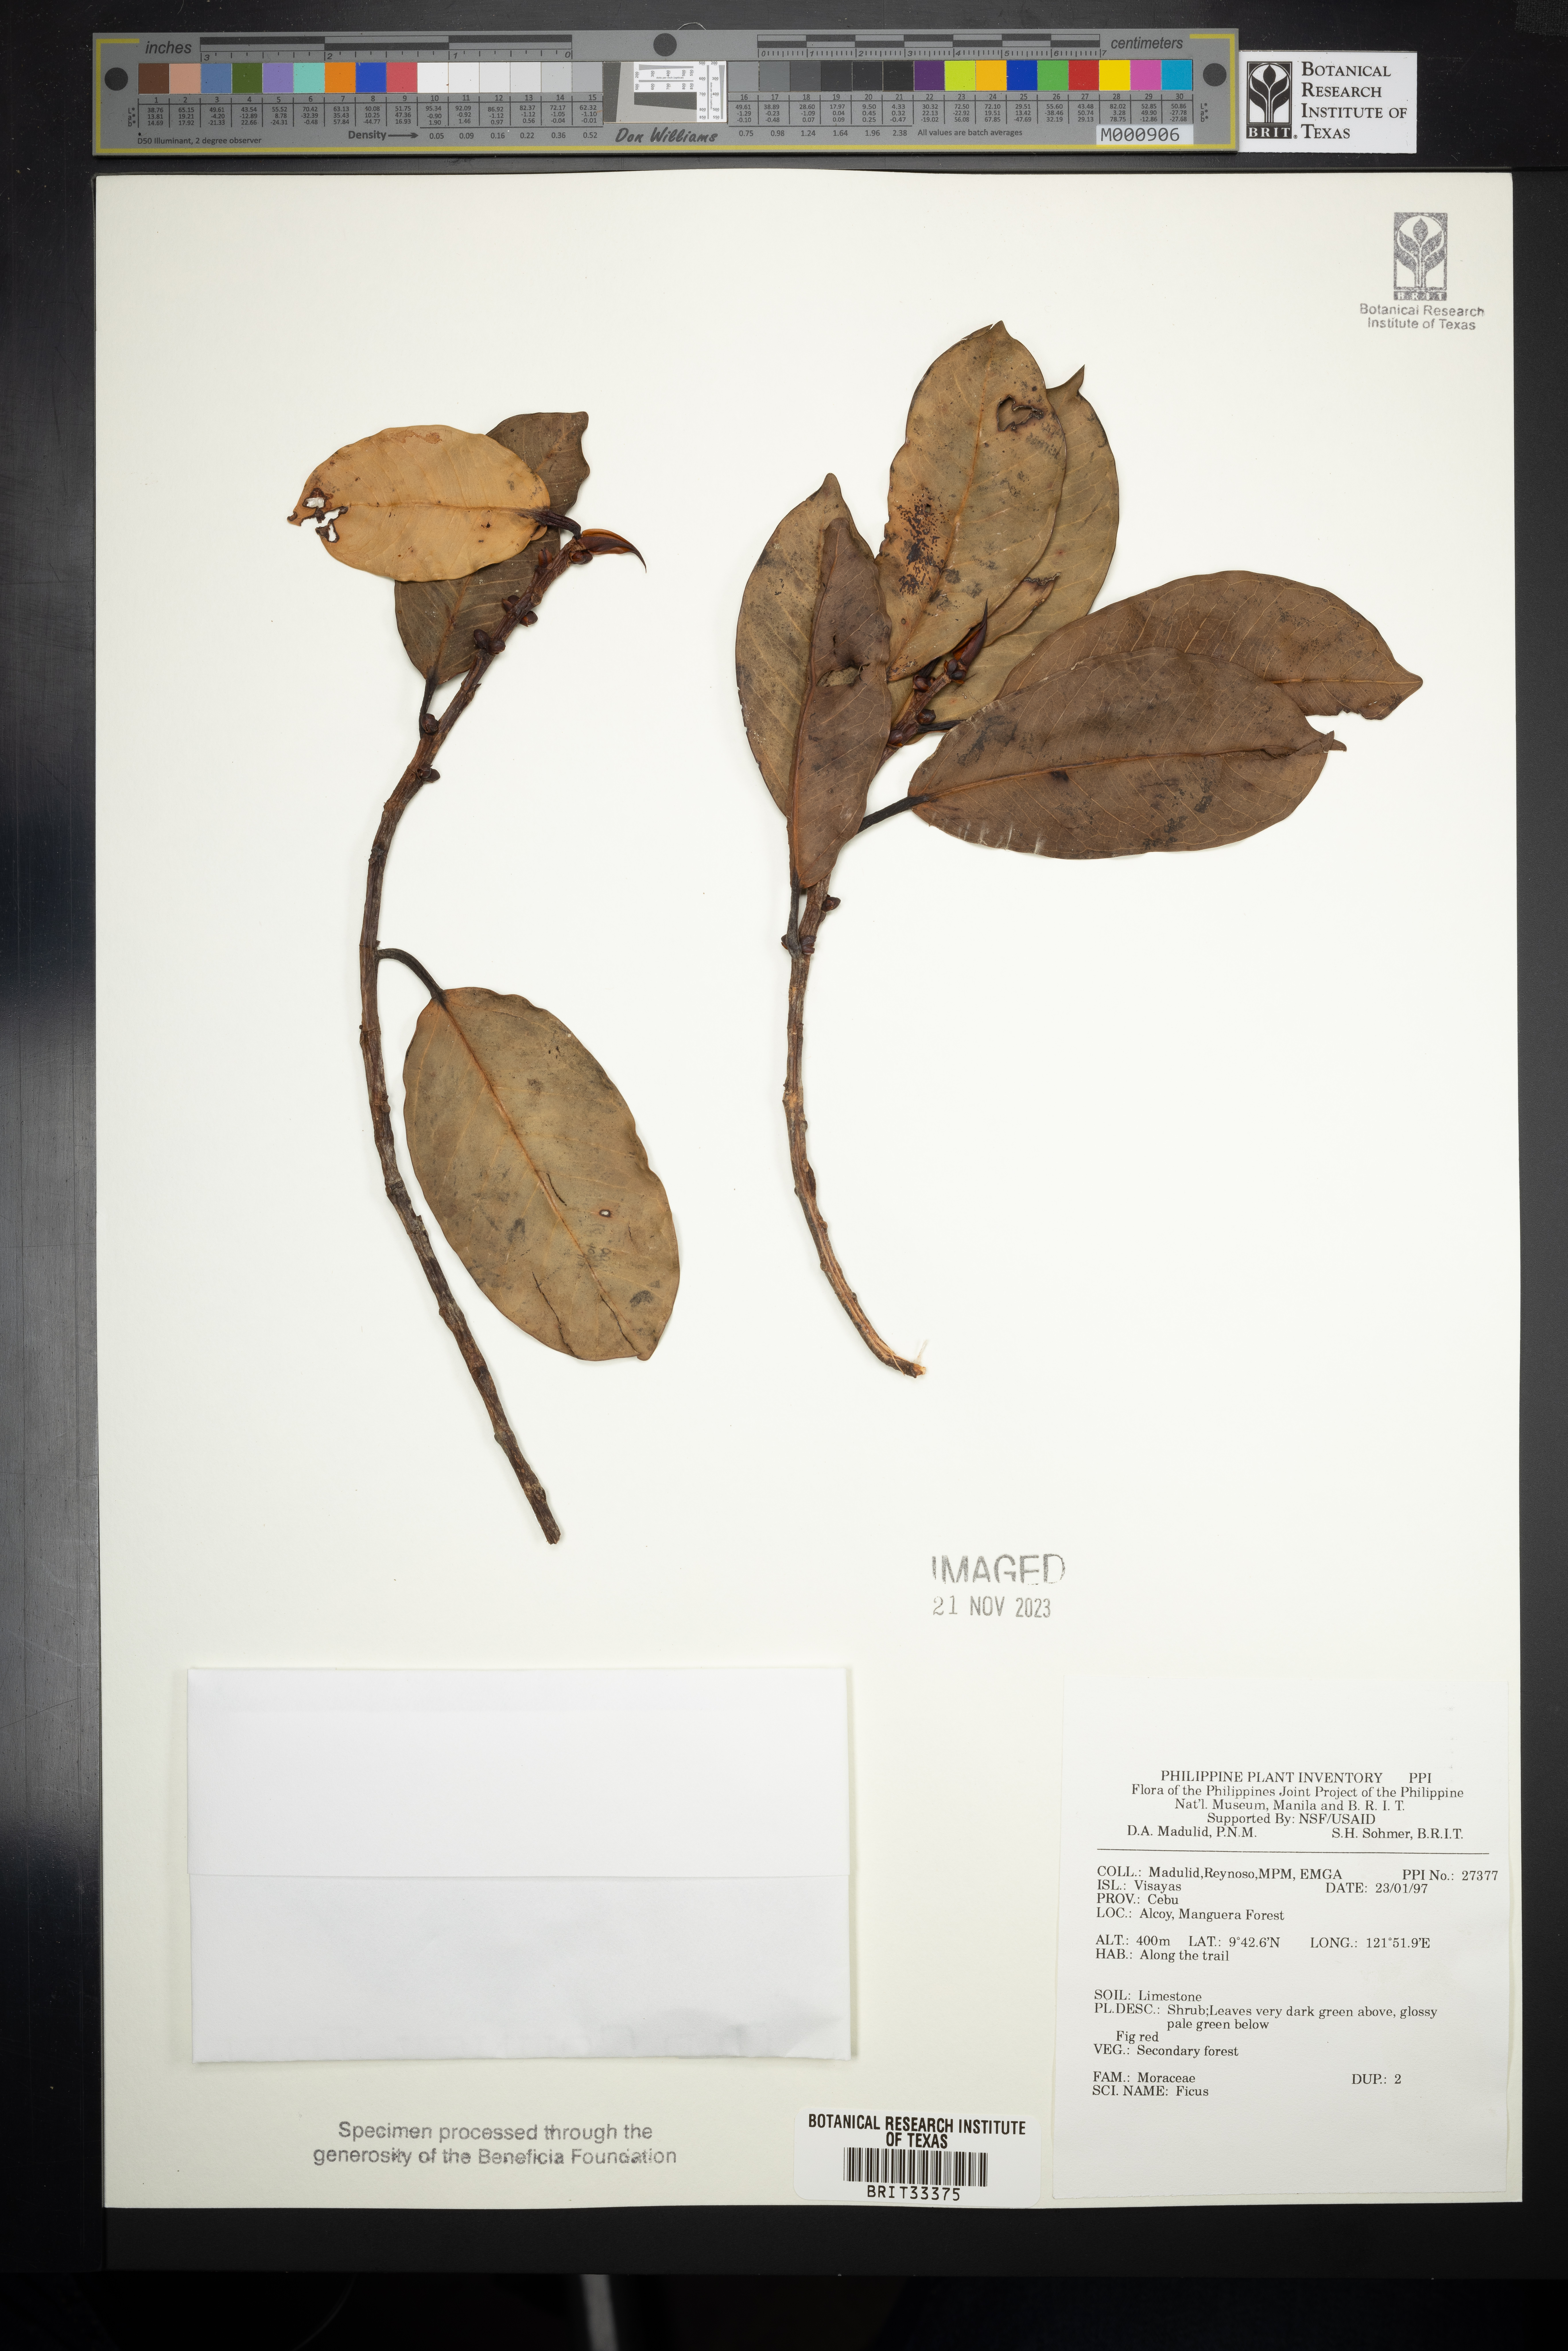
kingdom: Plantae
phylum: Tracheophyta
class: Magnoliopsida
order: Rosales
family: Moraceae
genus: Ficus
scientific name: Ficus
